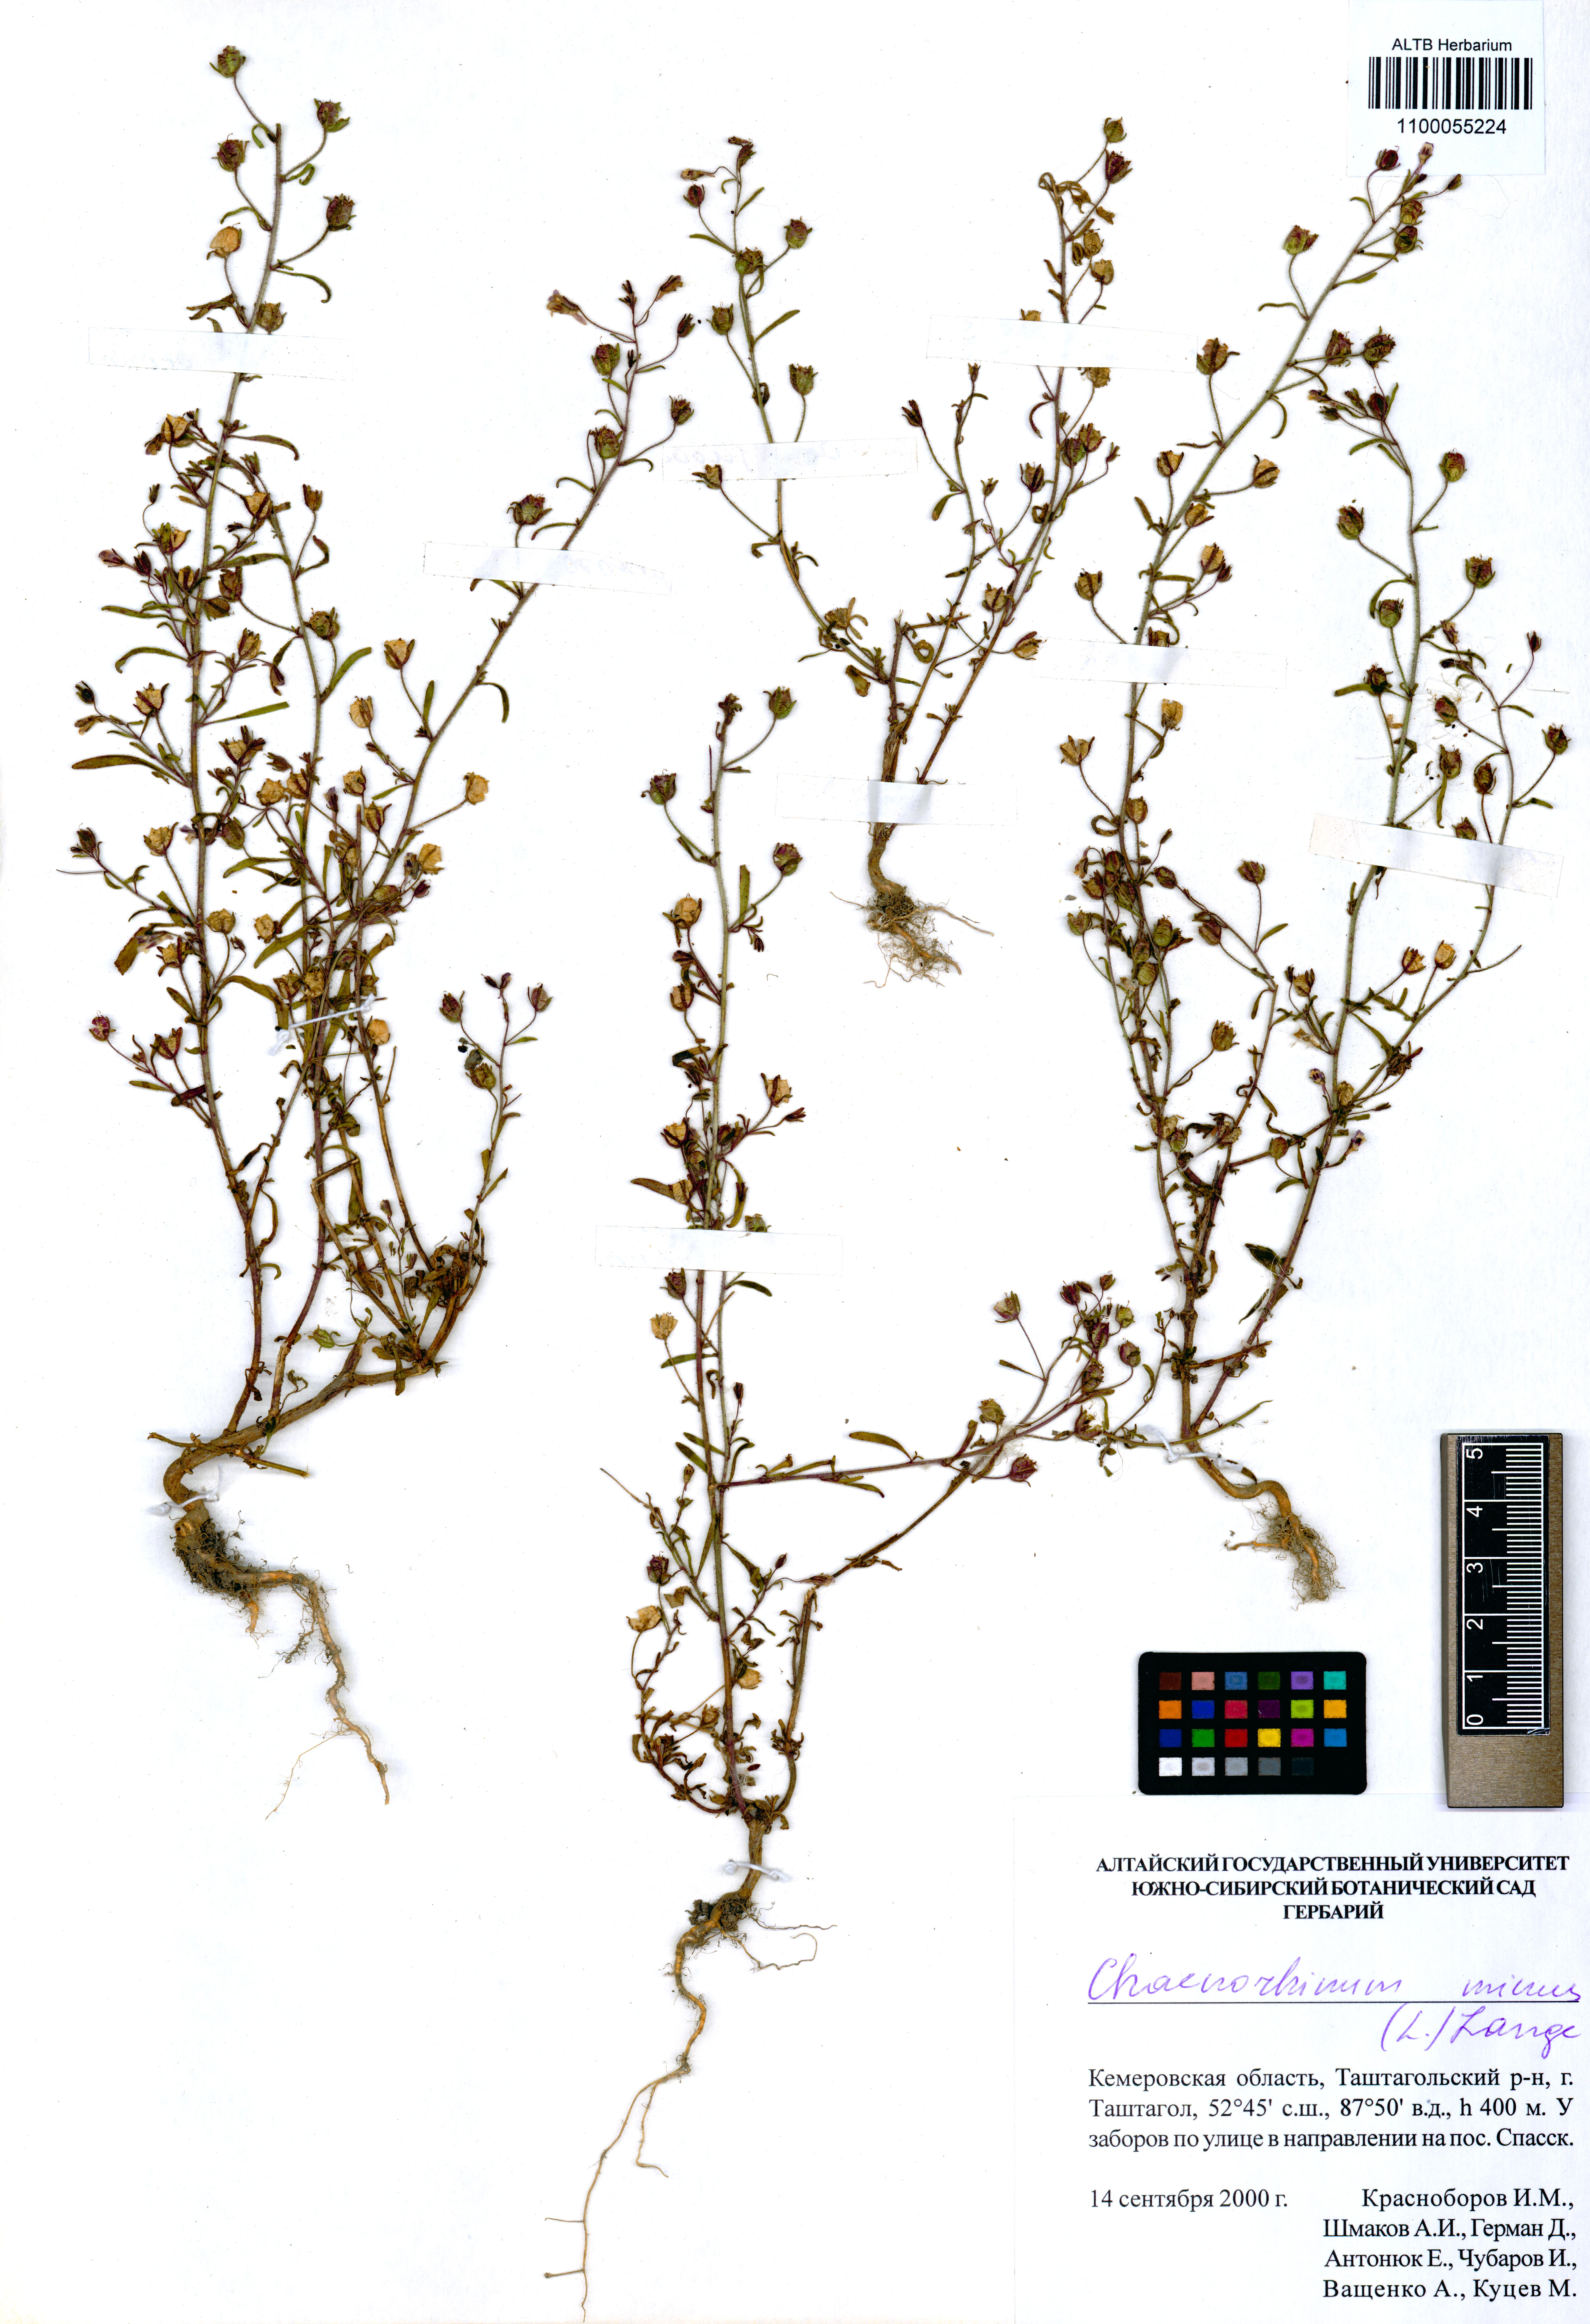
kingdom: Plantae
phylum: Tracheophyta
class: Magnoliopsida
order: Lamiales
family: Plantaginaceae
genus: Chaenorhinum
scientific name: Chaenorhinum minus
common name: Dwarf snapdragon
